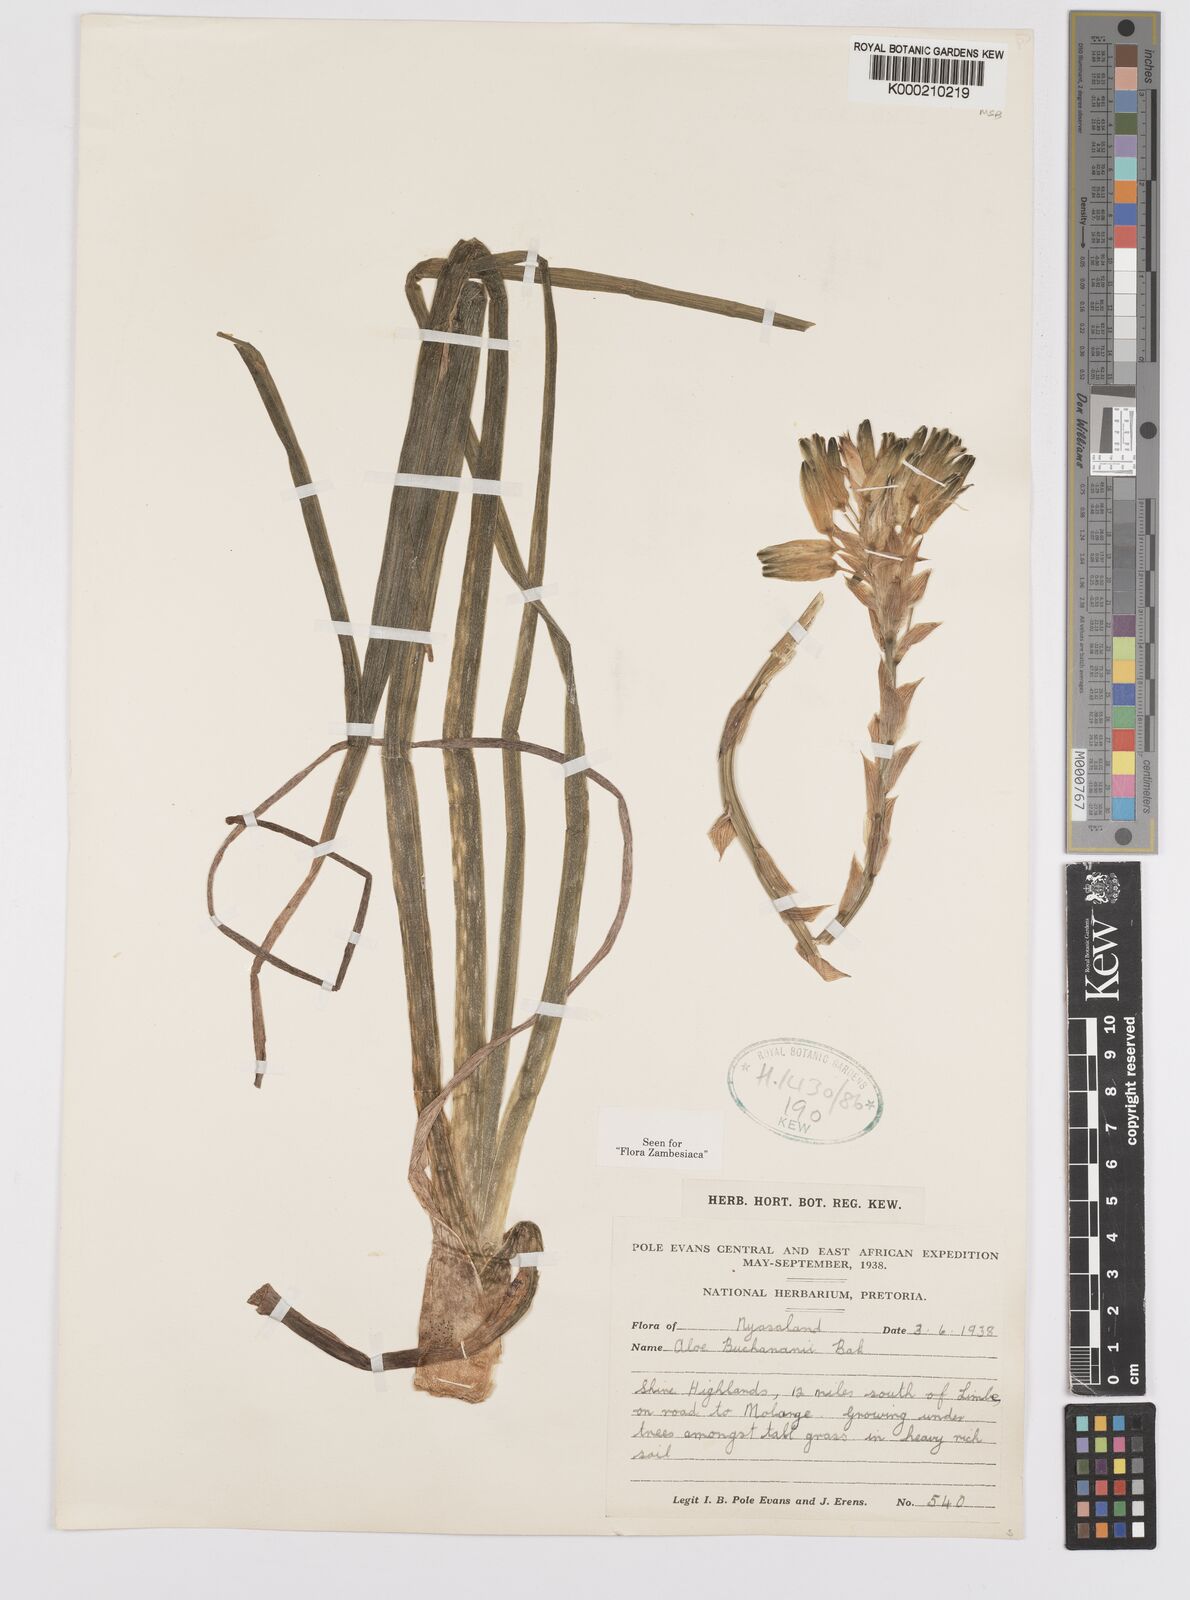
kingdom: Plantae
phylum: Tracheophyta
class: Liliopsida
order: Asparagales
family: Asphodelaceae
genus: Aloe
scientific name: Aloe buchananii
